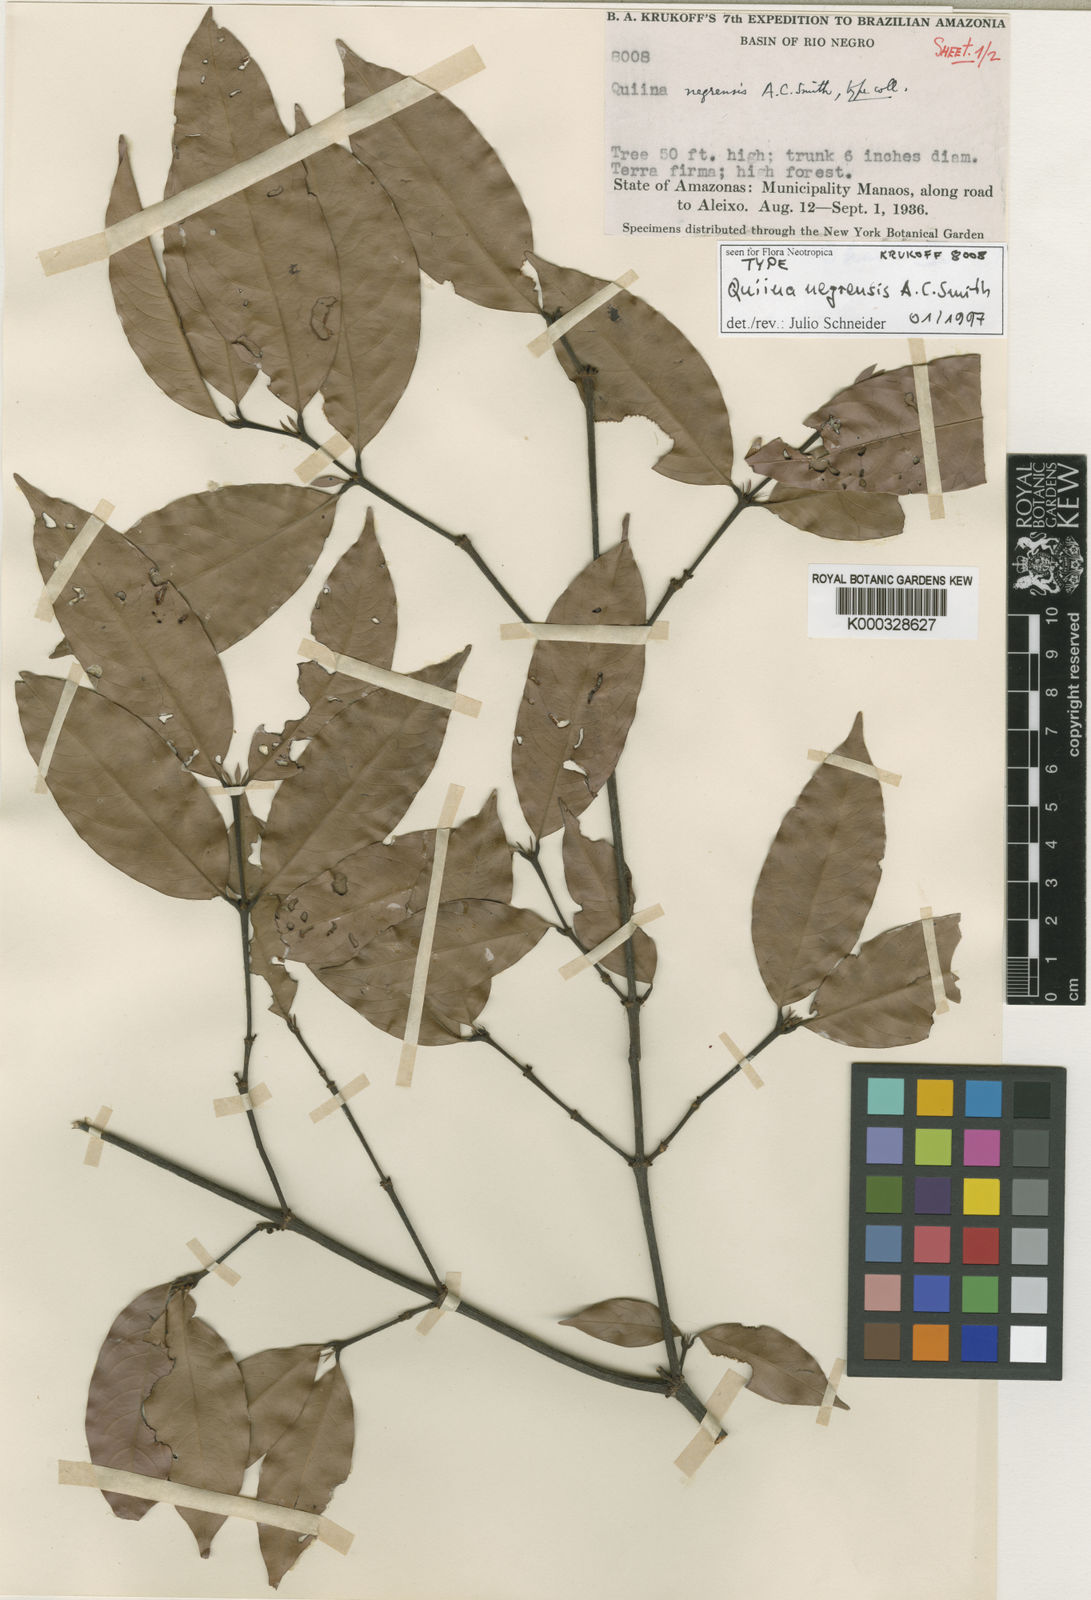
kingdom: Plantae
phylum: Tracheophyta
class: Magnoliopsida
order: Malpighiales
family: Quiinaceae
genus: Quiina
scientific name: Quiina negrensis
